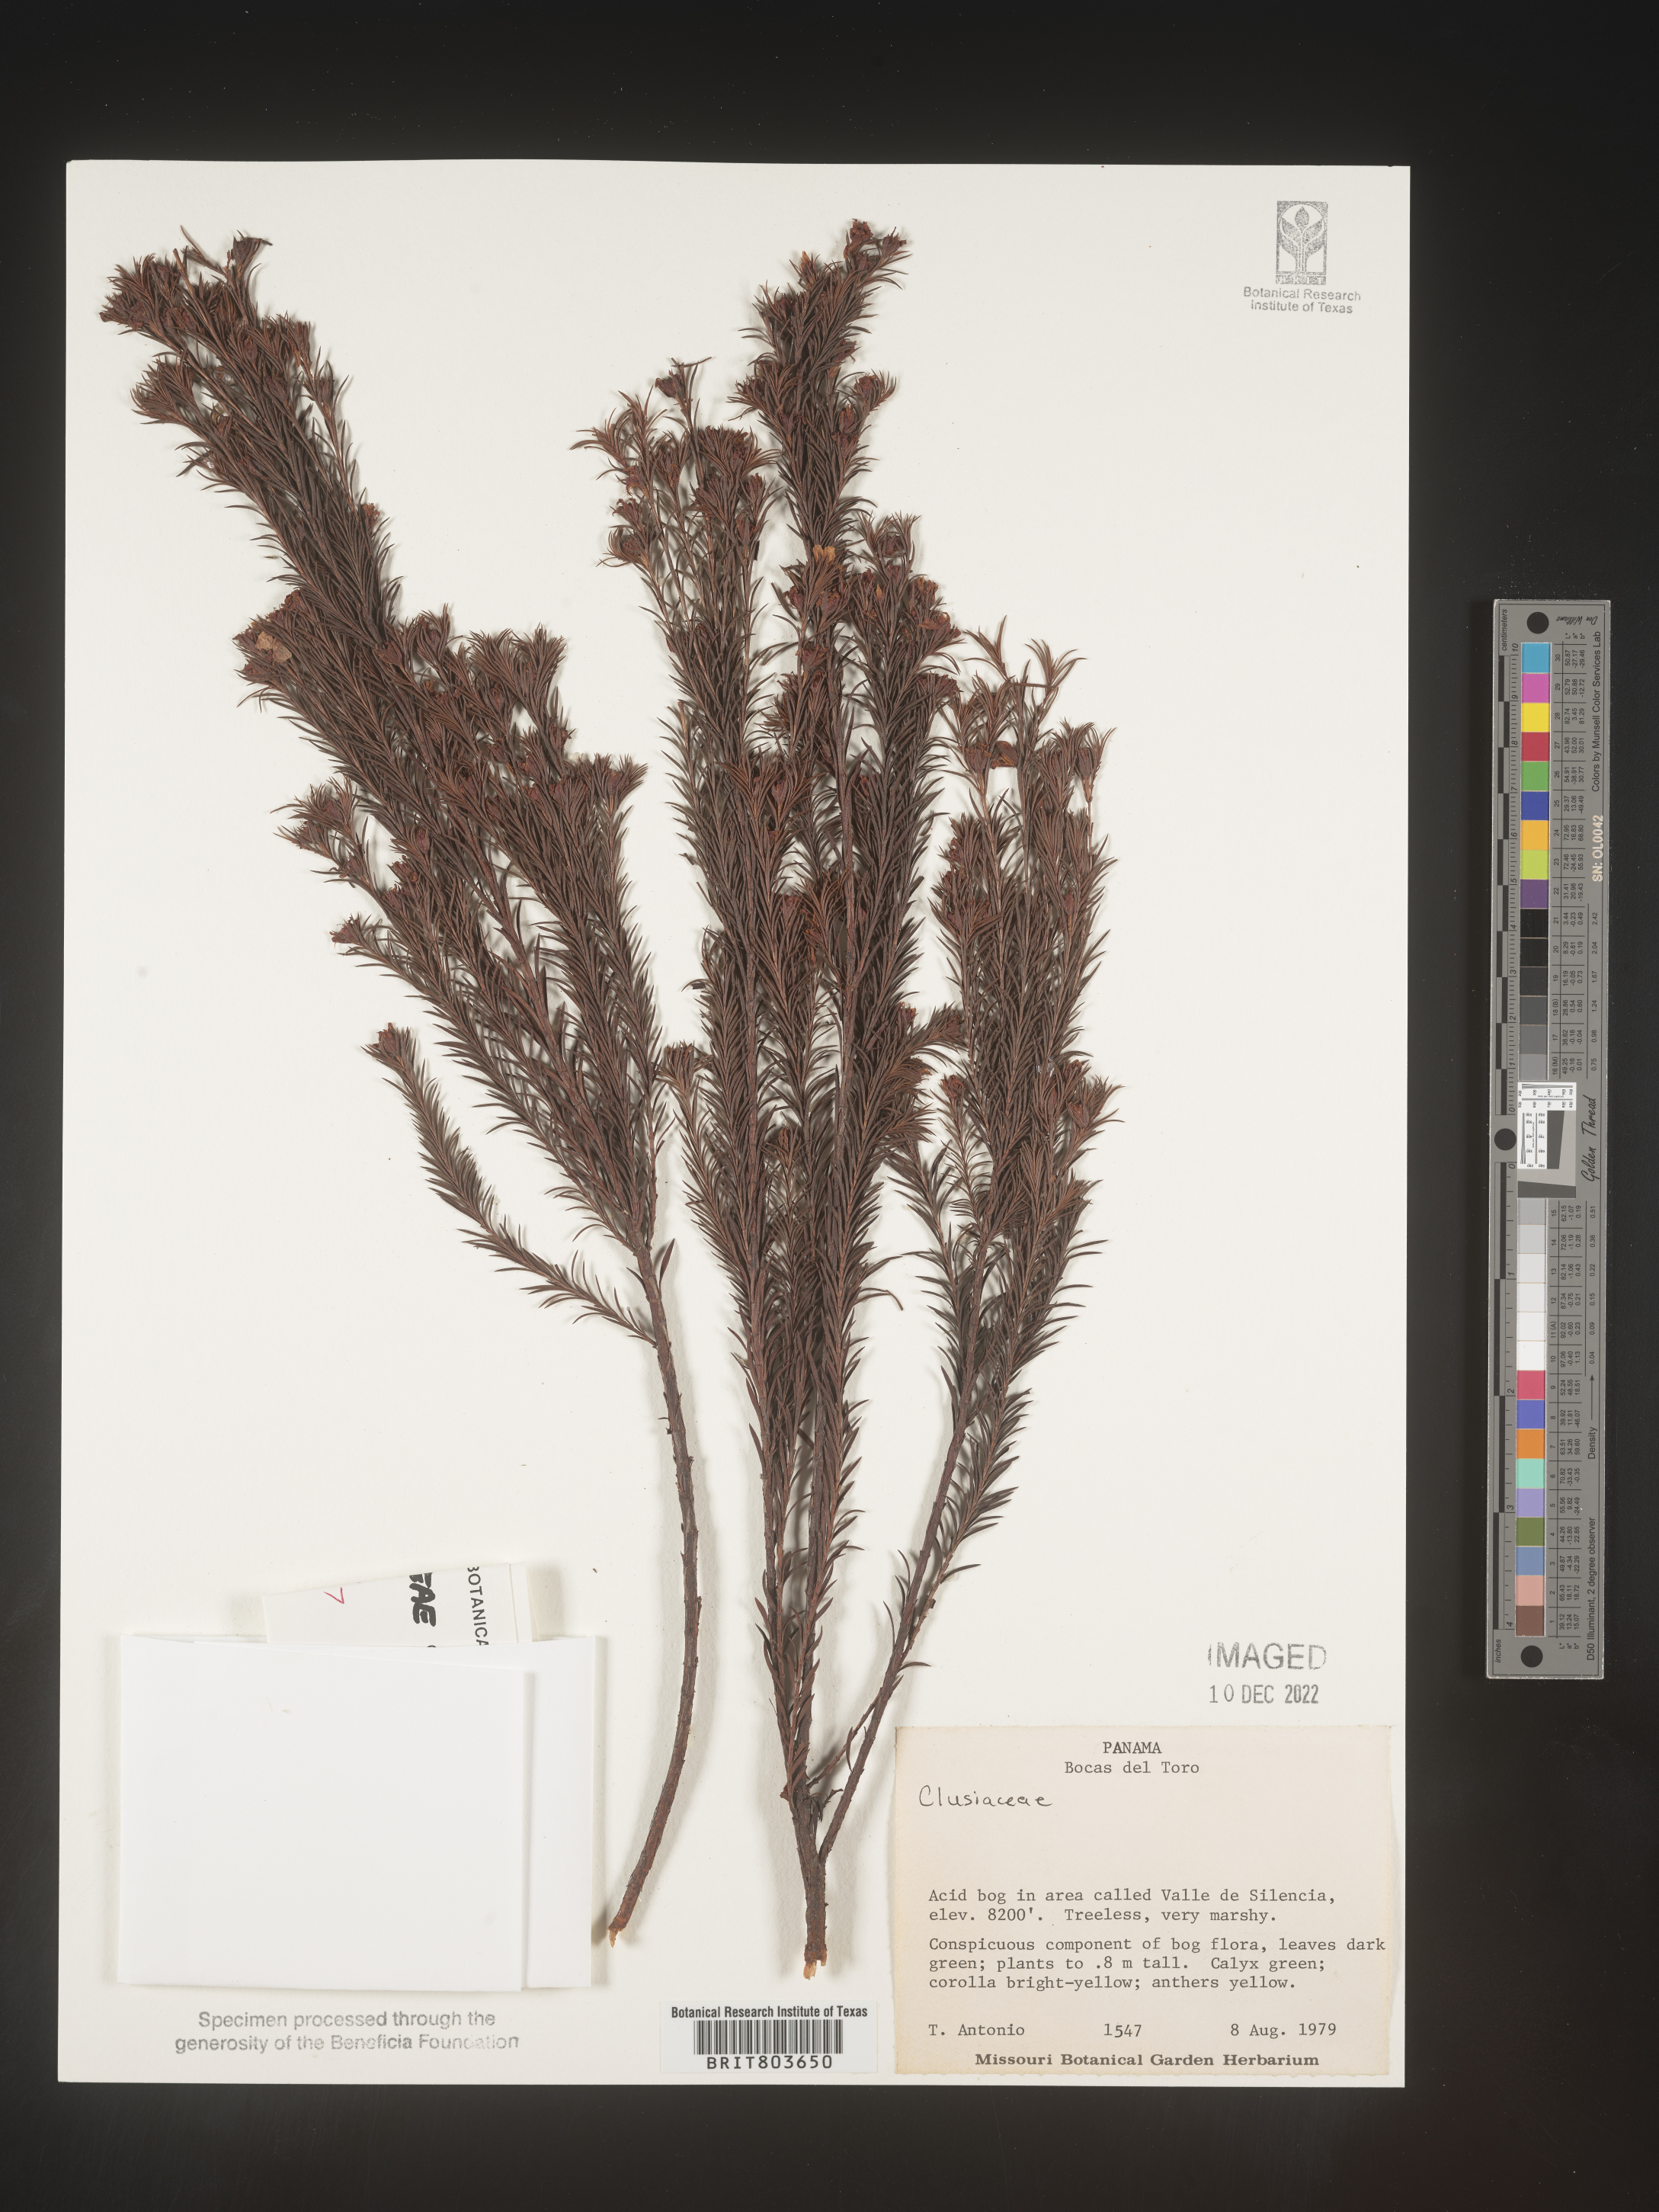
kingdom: Plantae
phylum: Tracheophyta
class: Magnoliopsida
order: Malpighiales
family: Clusiaceae
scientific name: Clusiaceae
